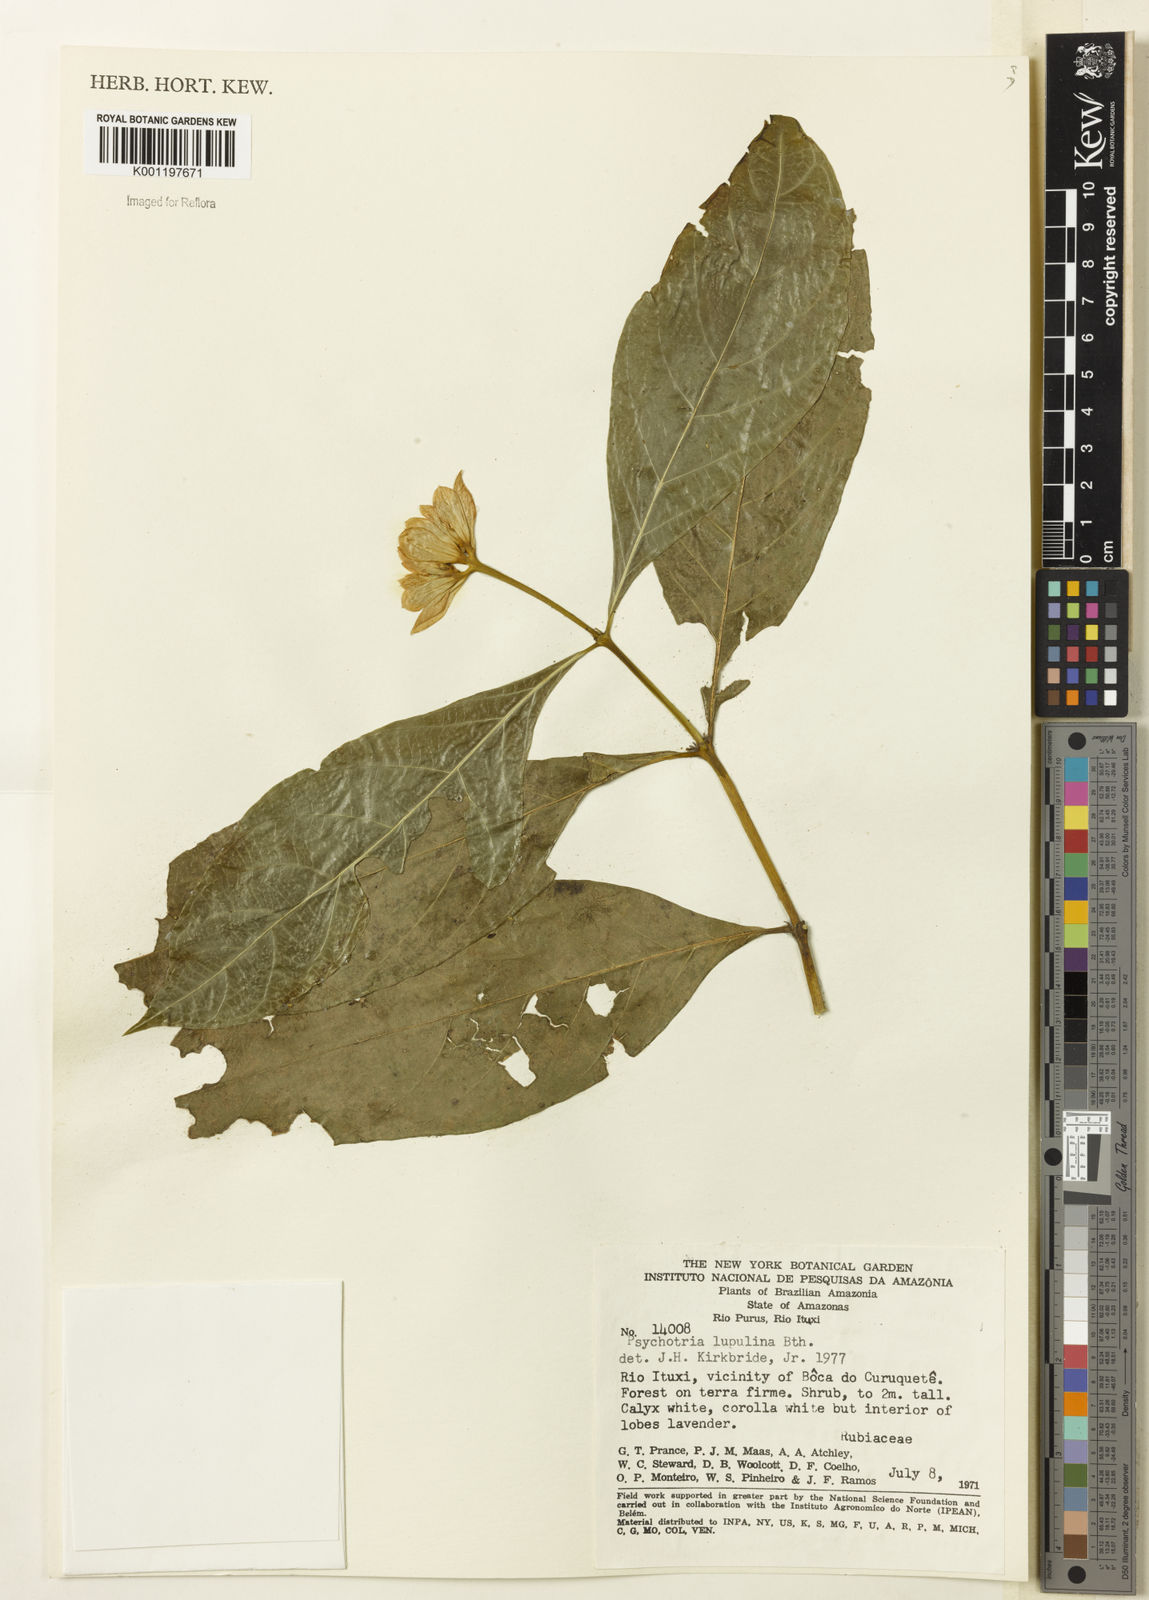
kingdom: Plantae
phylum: Tracheophyta
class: Magnoliopsida
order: Gentianales
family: Rubiaceae
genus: Palicourea
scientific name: Palicourea justiciifolia
